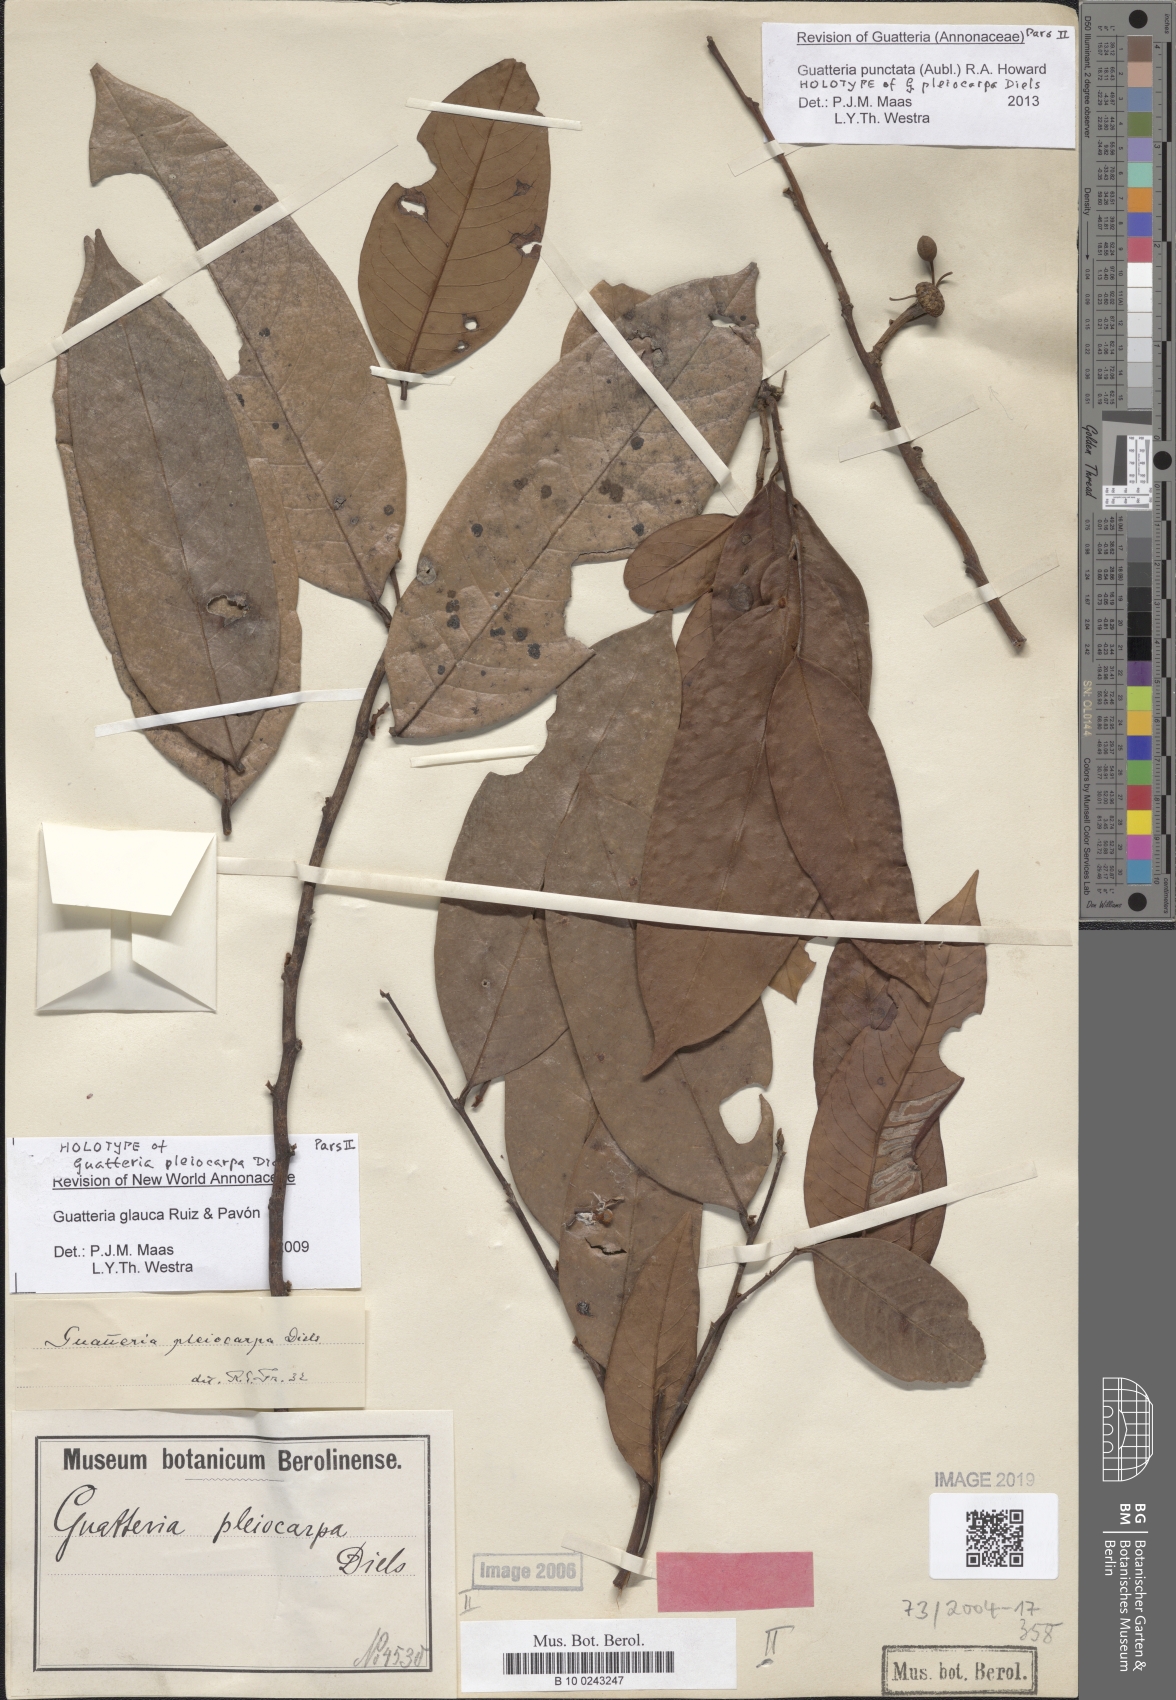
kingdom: Plantae
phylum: Tracheophyta
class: Magnoliopsida
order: Magnoliales
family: Annonaceae
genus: Guatteria
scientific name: Guatteria punctata
